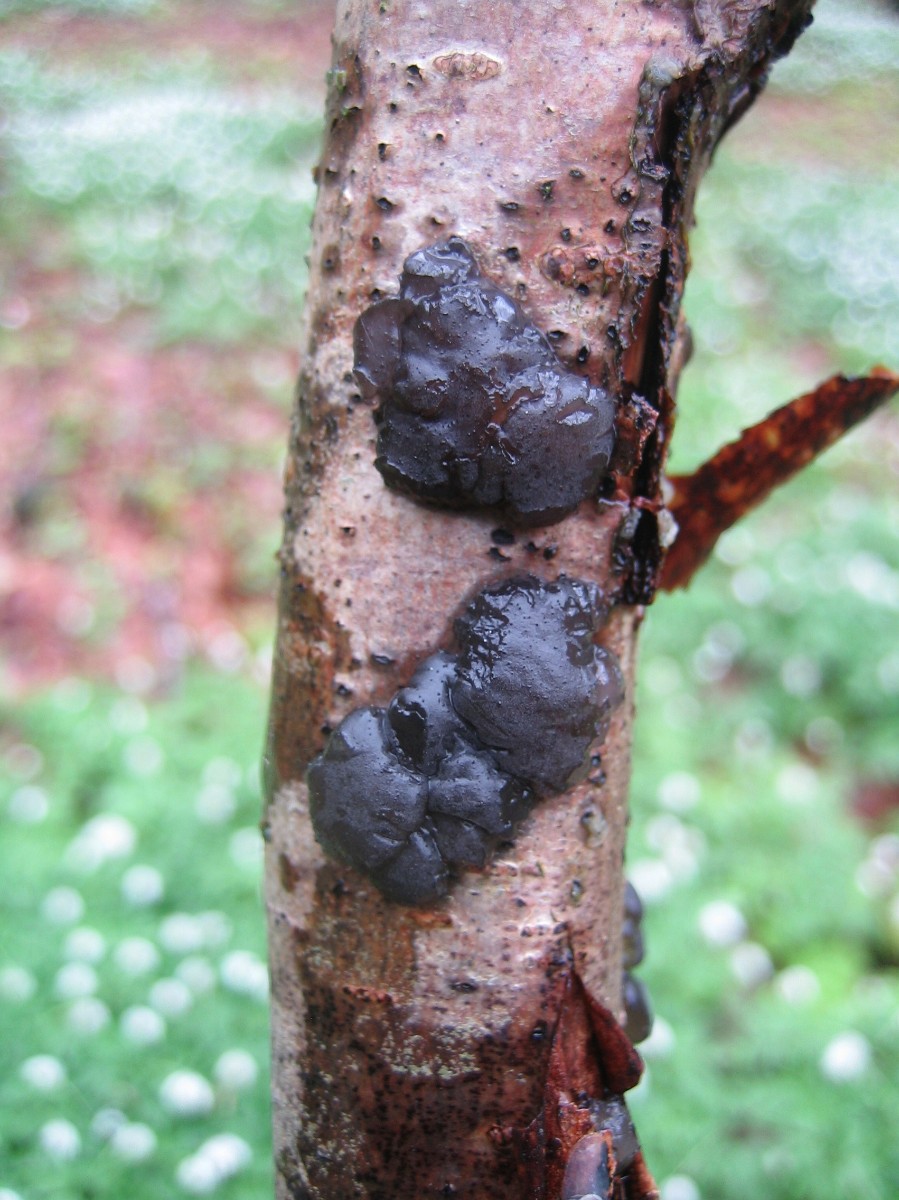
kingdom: Fungi
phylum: Basidiomycota
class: Agaricomycetes
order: Auriculariales
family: Auriculariaceae
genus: Exidia
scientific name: Exidia nigricans
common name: almindelig bævretop
